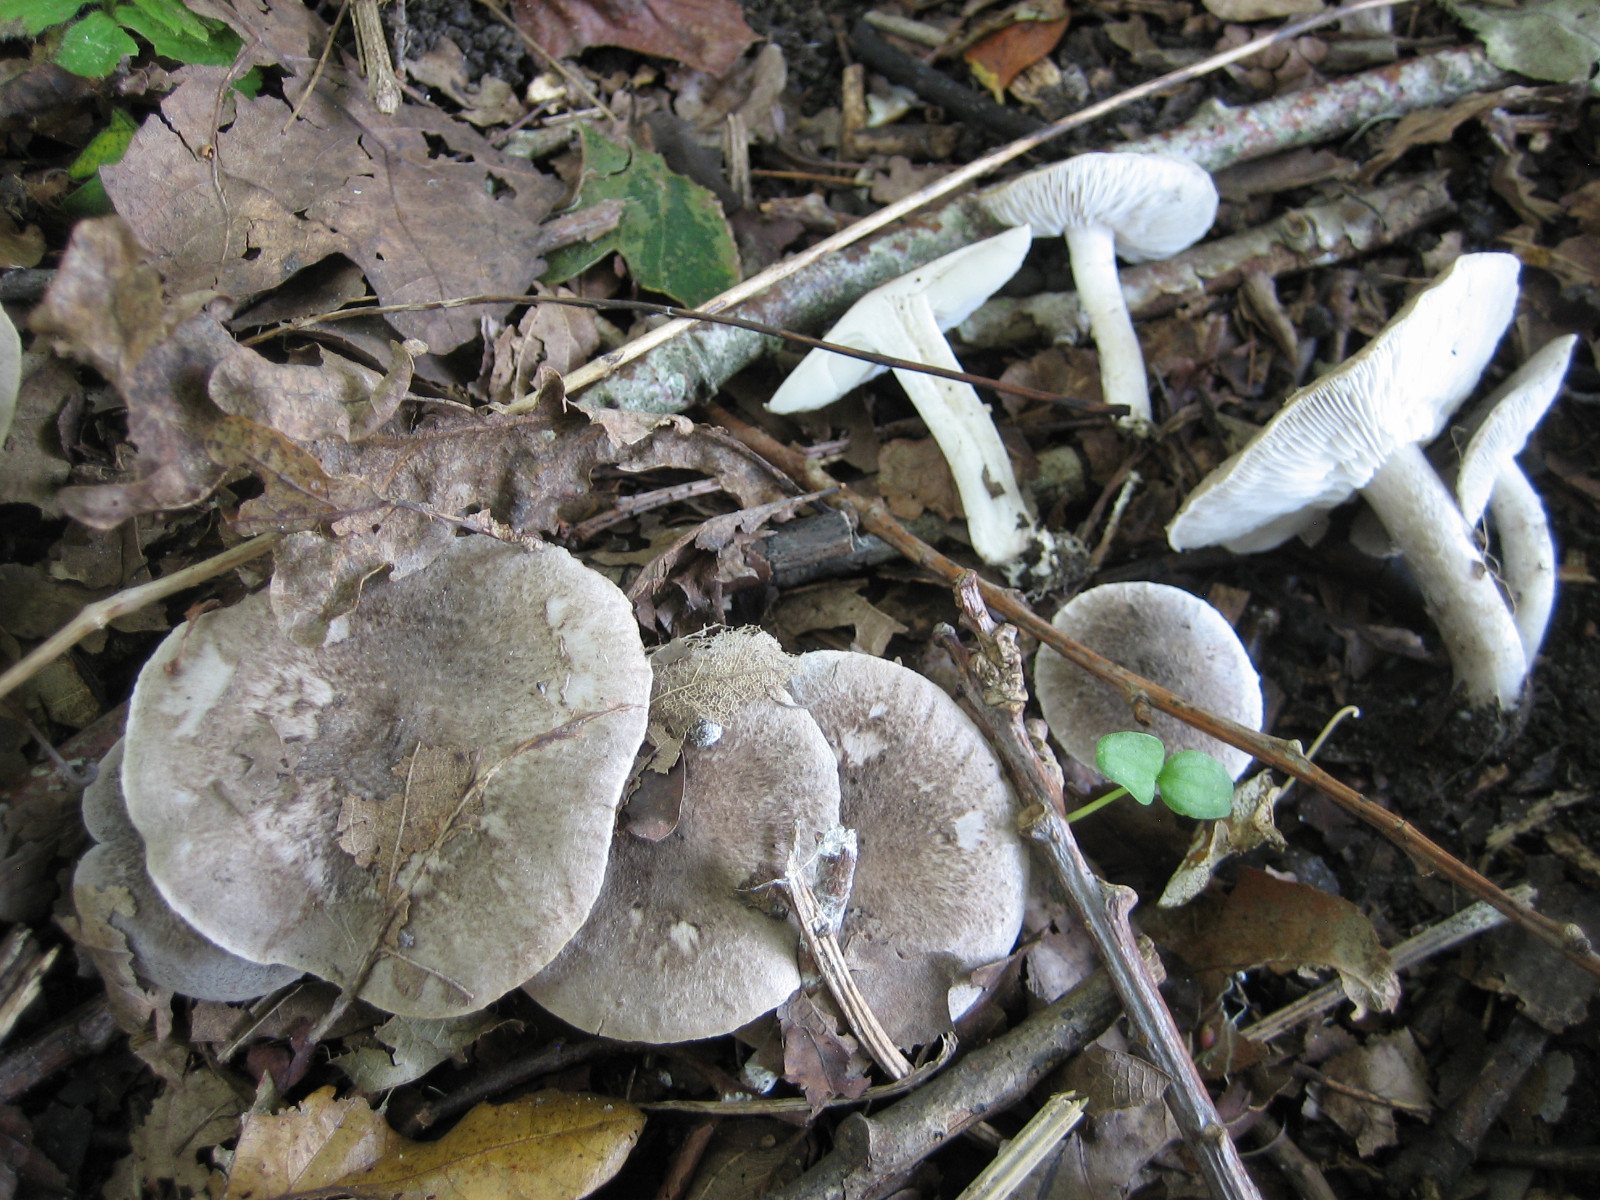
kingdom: Fungi
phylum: Basidiomycota
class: Agaricomycetes
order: Agaricales
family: Tricholomataceae
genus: Tricholoma
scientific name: Tricholoma scalpturatum
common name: gulplettet ridderhat
